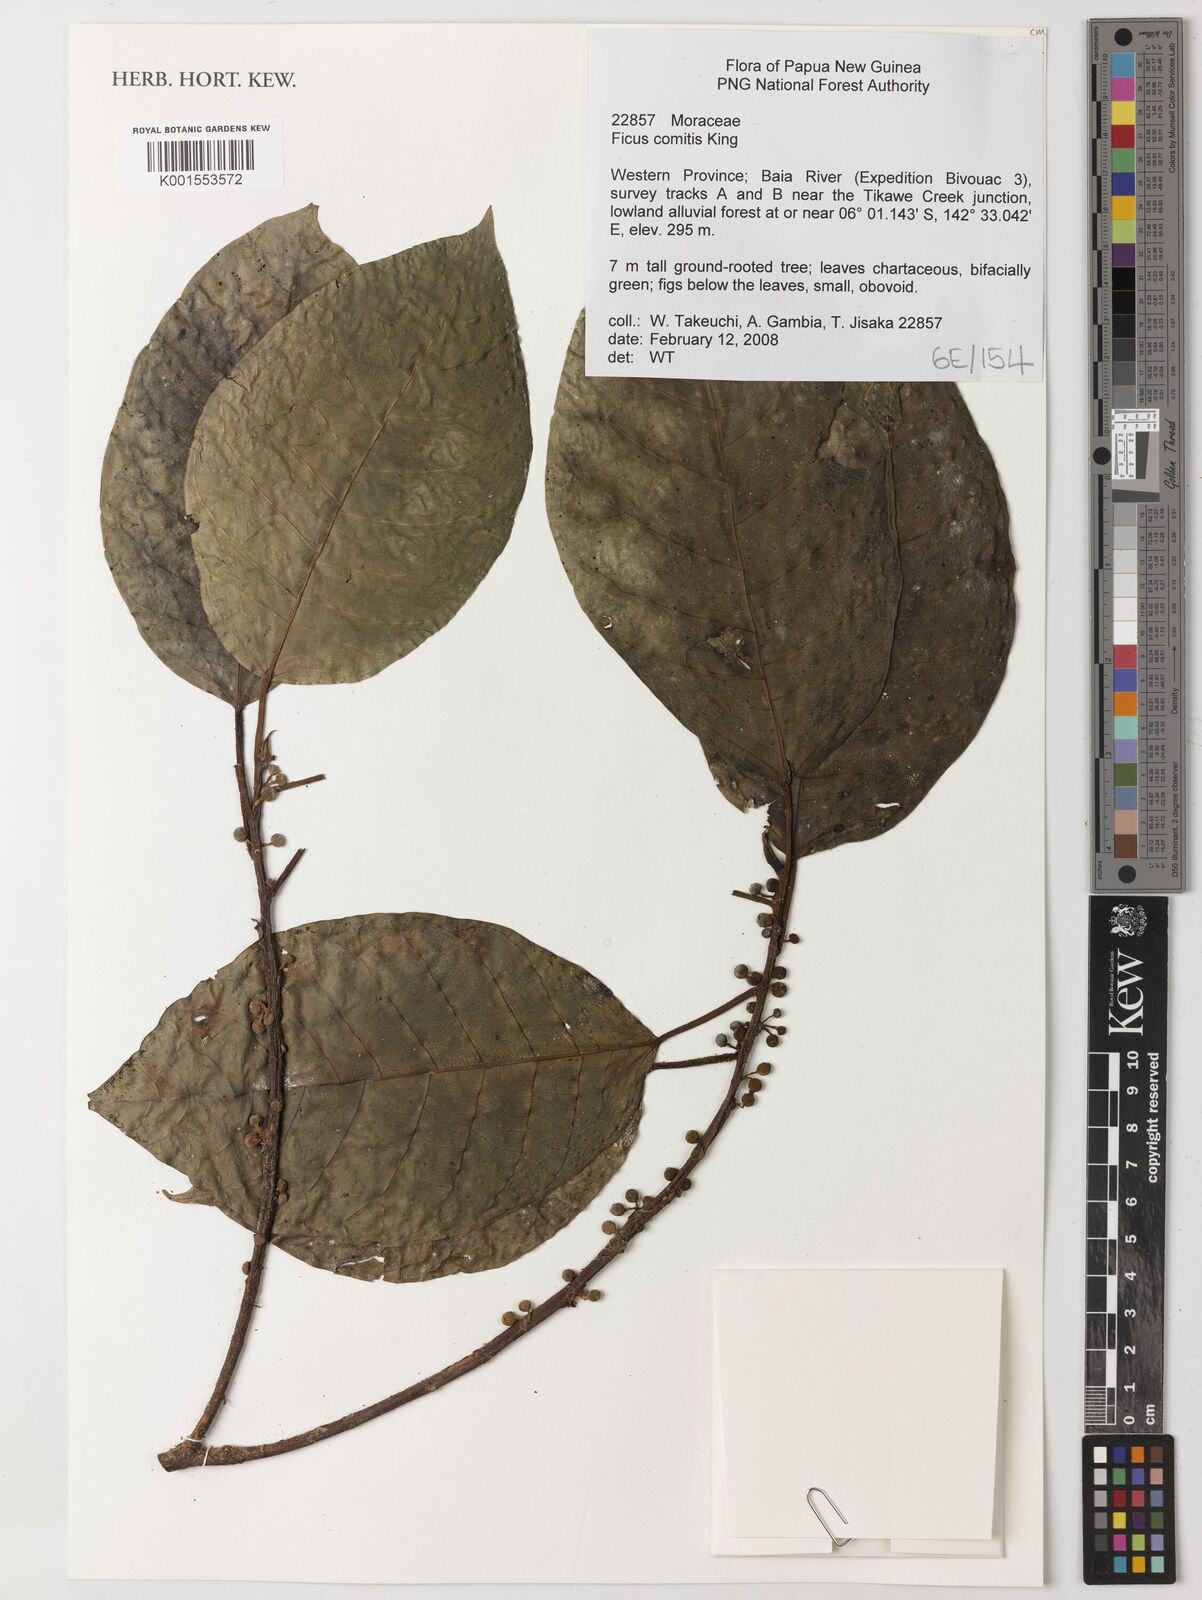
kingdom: Plantae
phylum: Tracheophyta
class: Magnoliopsida
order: Rosales
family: Moraceae
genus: Ficus
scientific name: Ficus comitis
